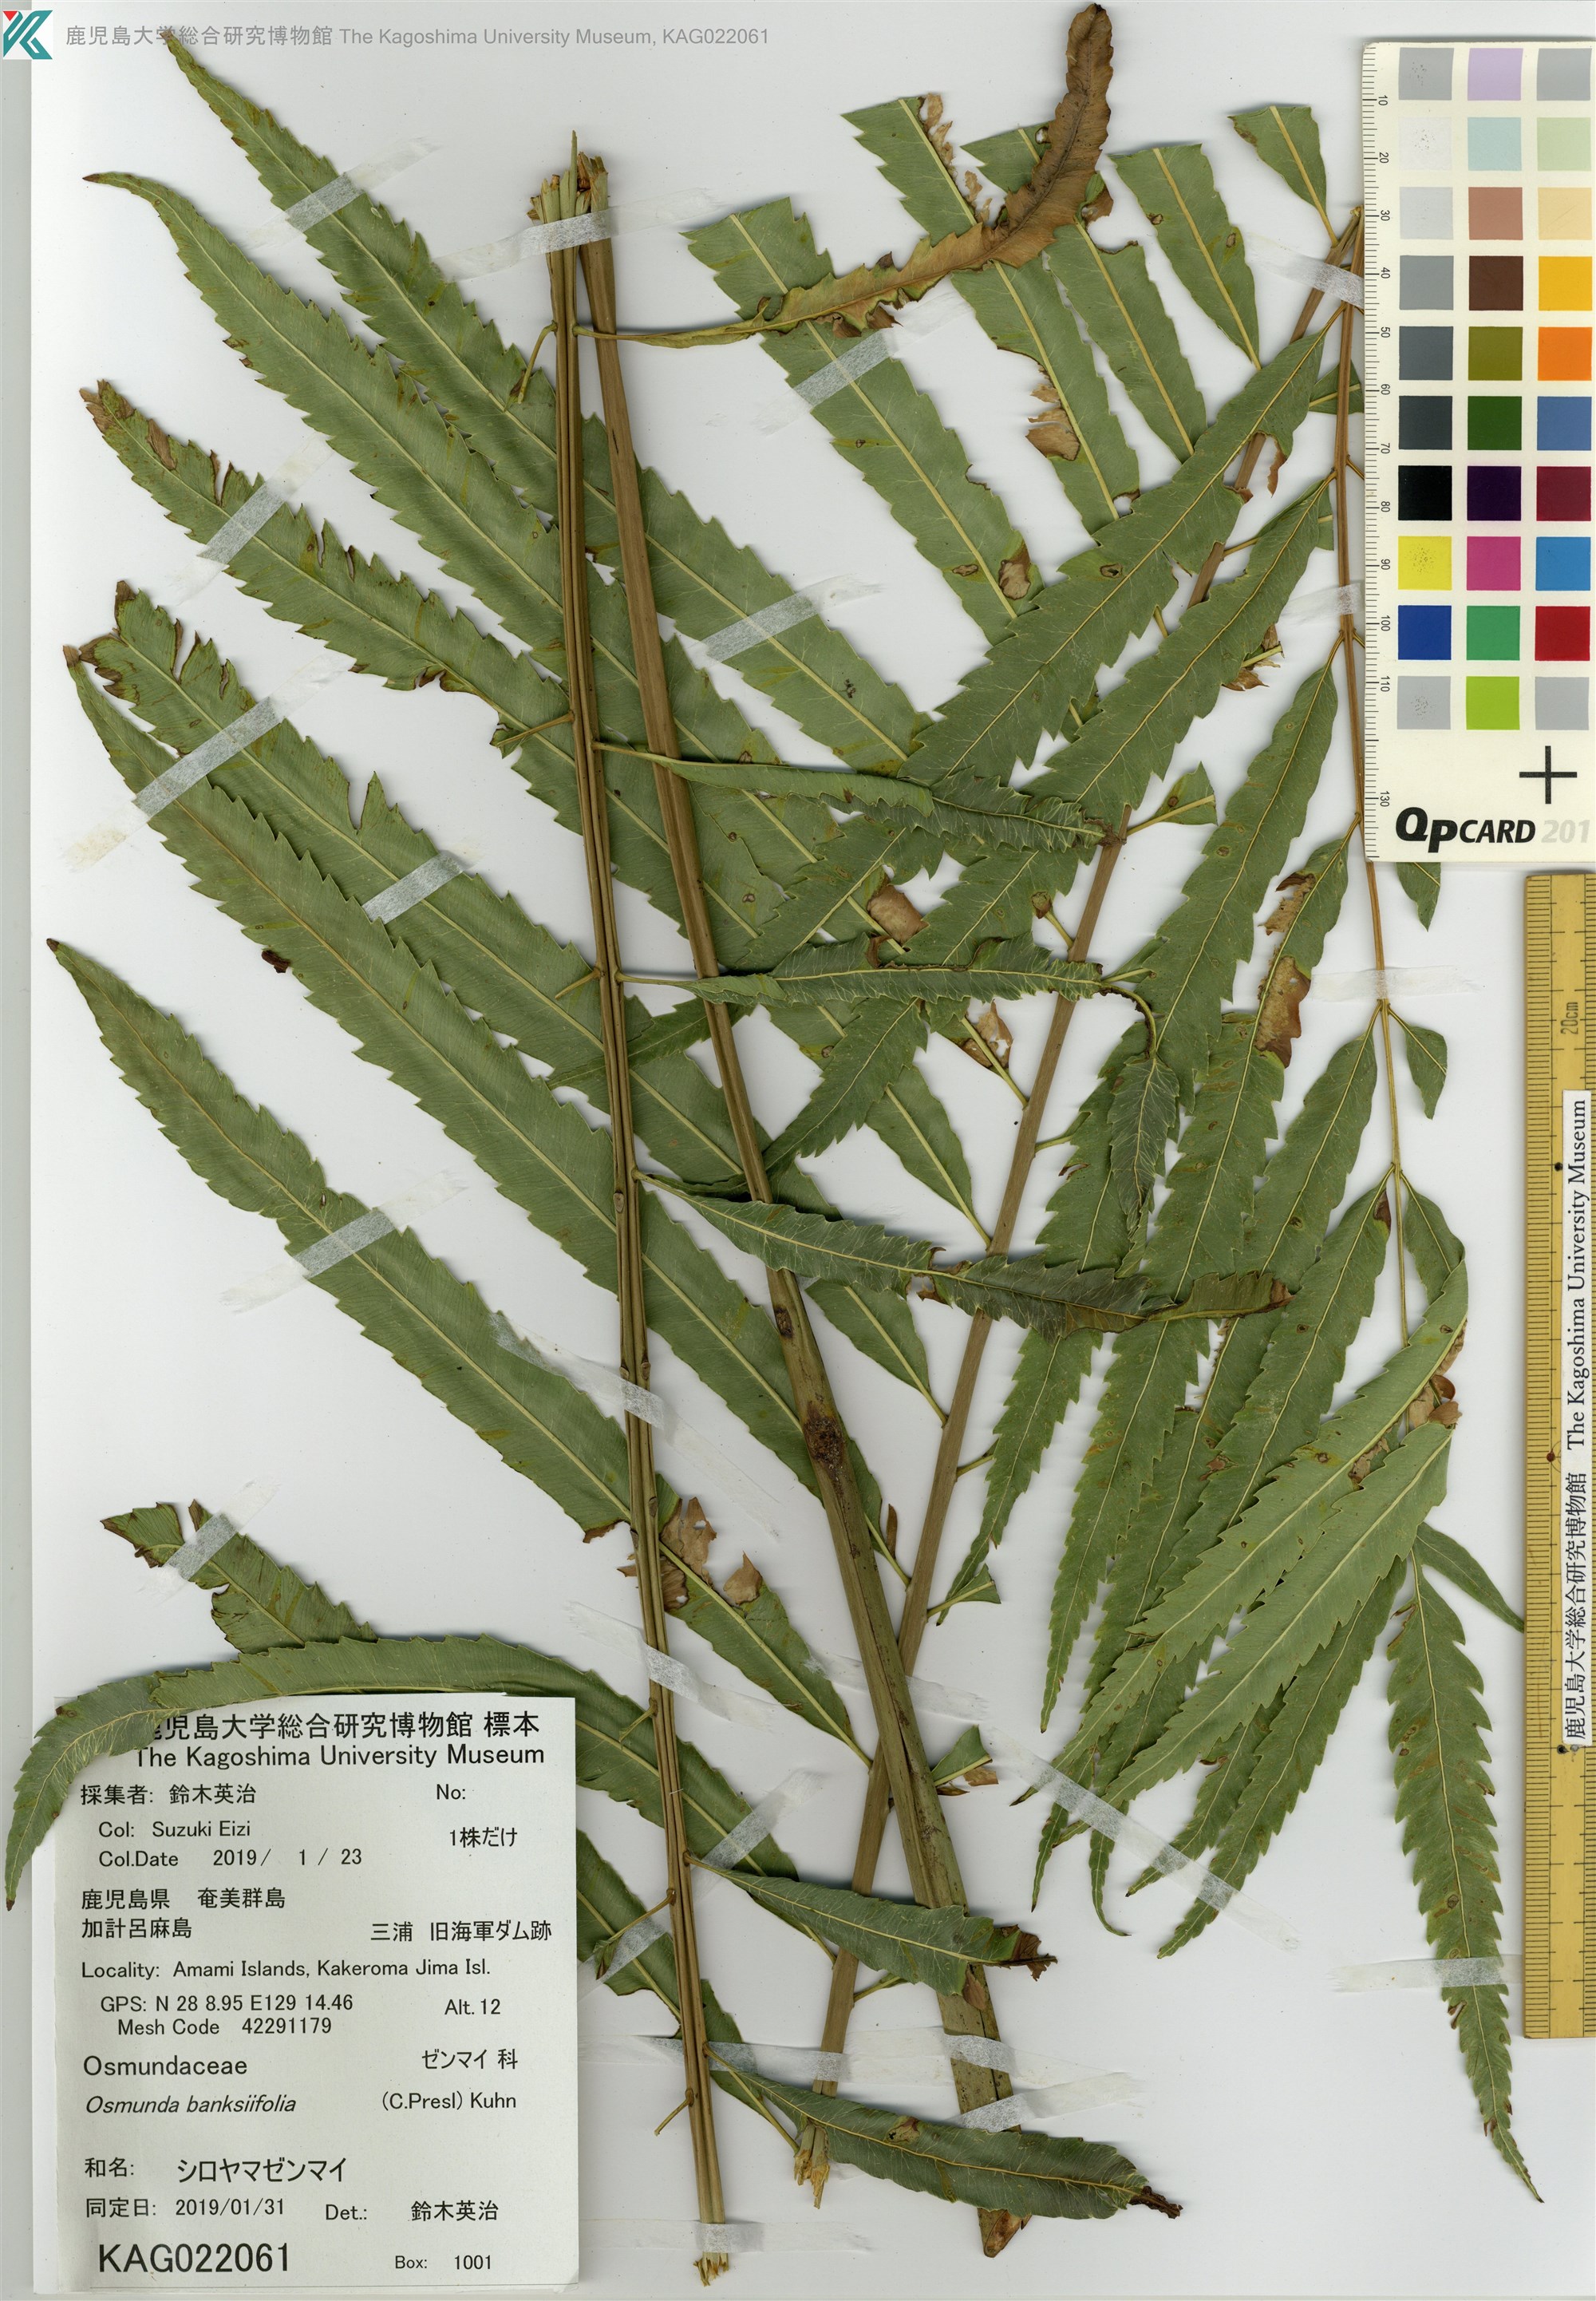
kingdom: Plantae
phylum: Tracheophyta
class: Polypodiopsida
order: Osmundales
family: Osmundaceae
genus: Plenasium
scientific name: Plenasium banksiifolium
